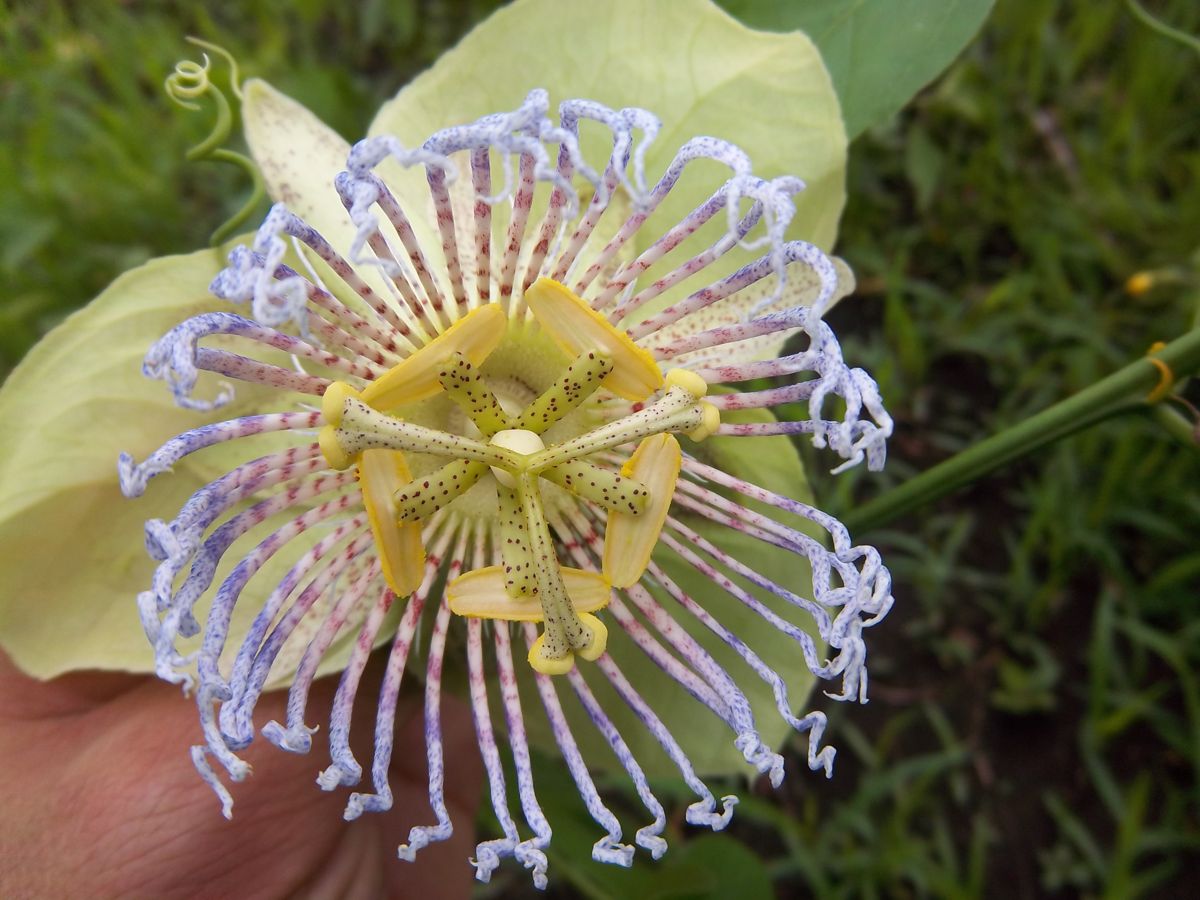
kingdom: Plantae
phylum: Tracheophyta
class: Magnoliopsida
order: Malpighiales
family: Passifloraceae
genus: Passiflora
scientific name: Passiflora platyloba
